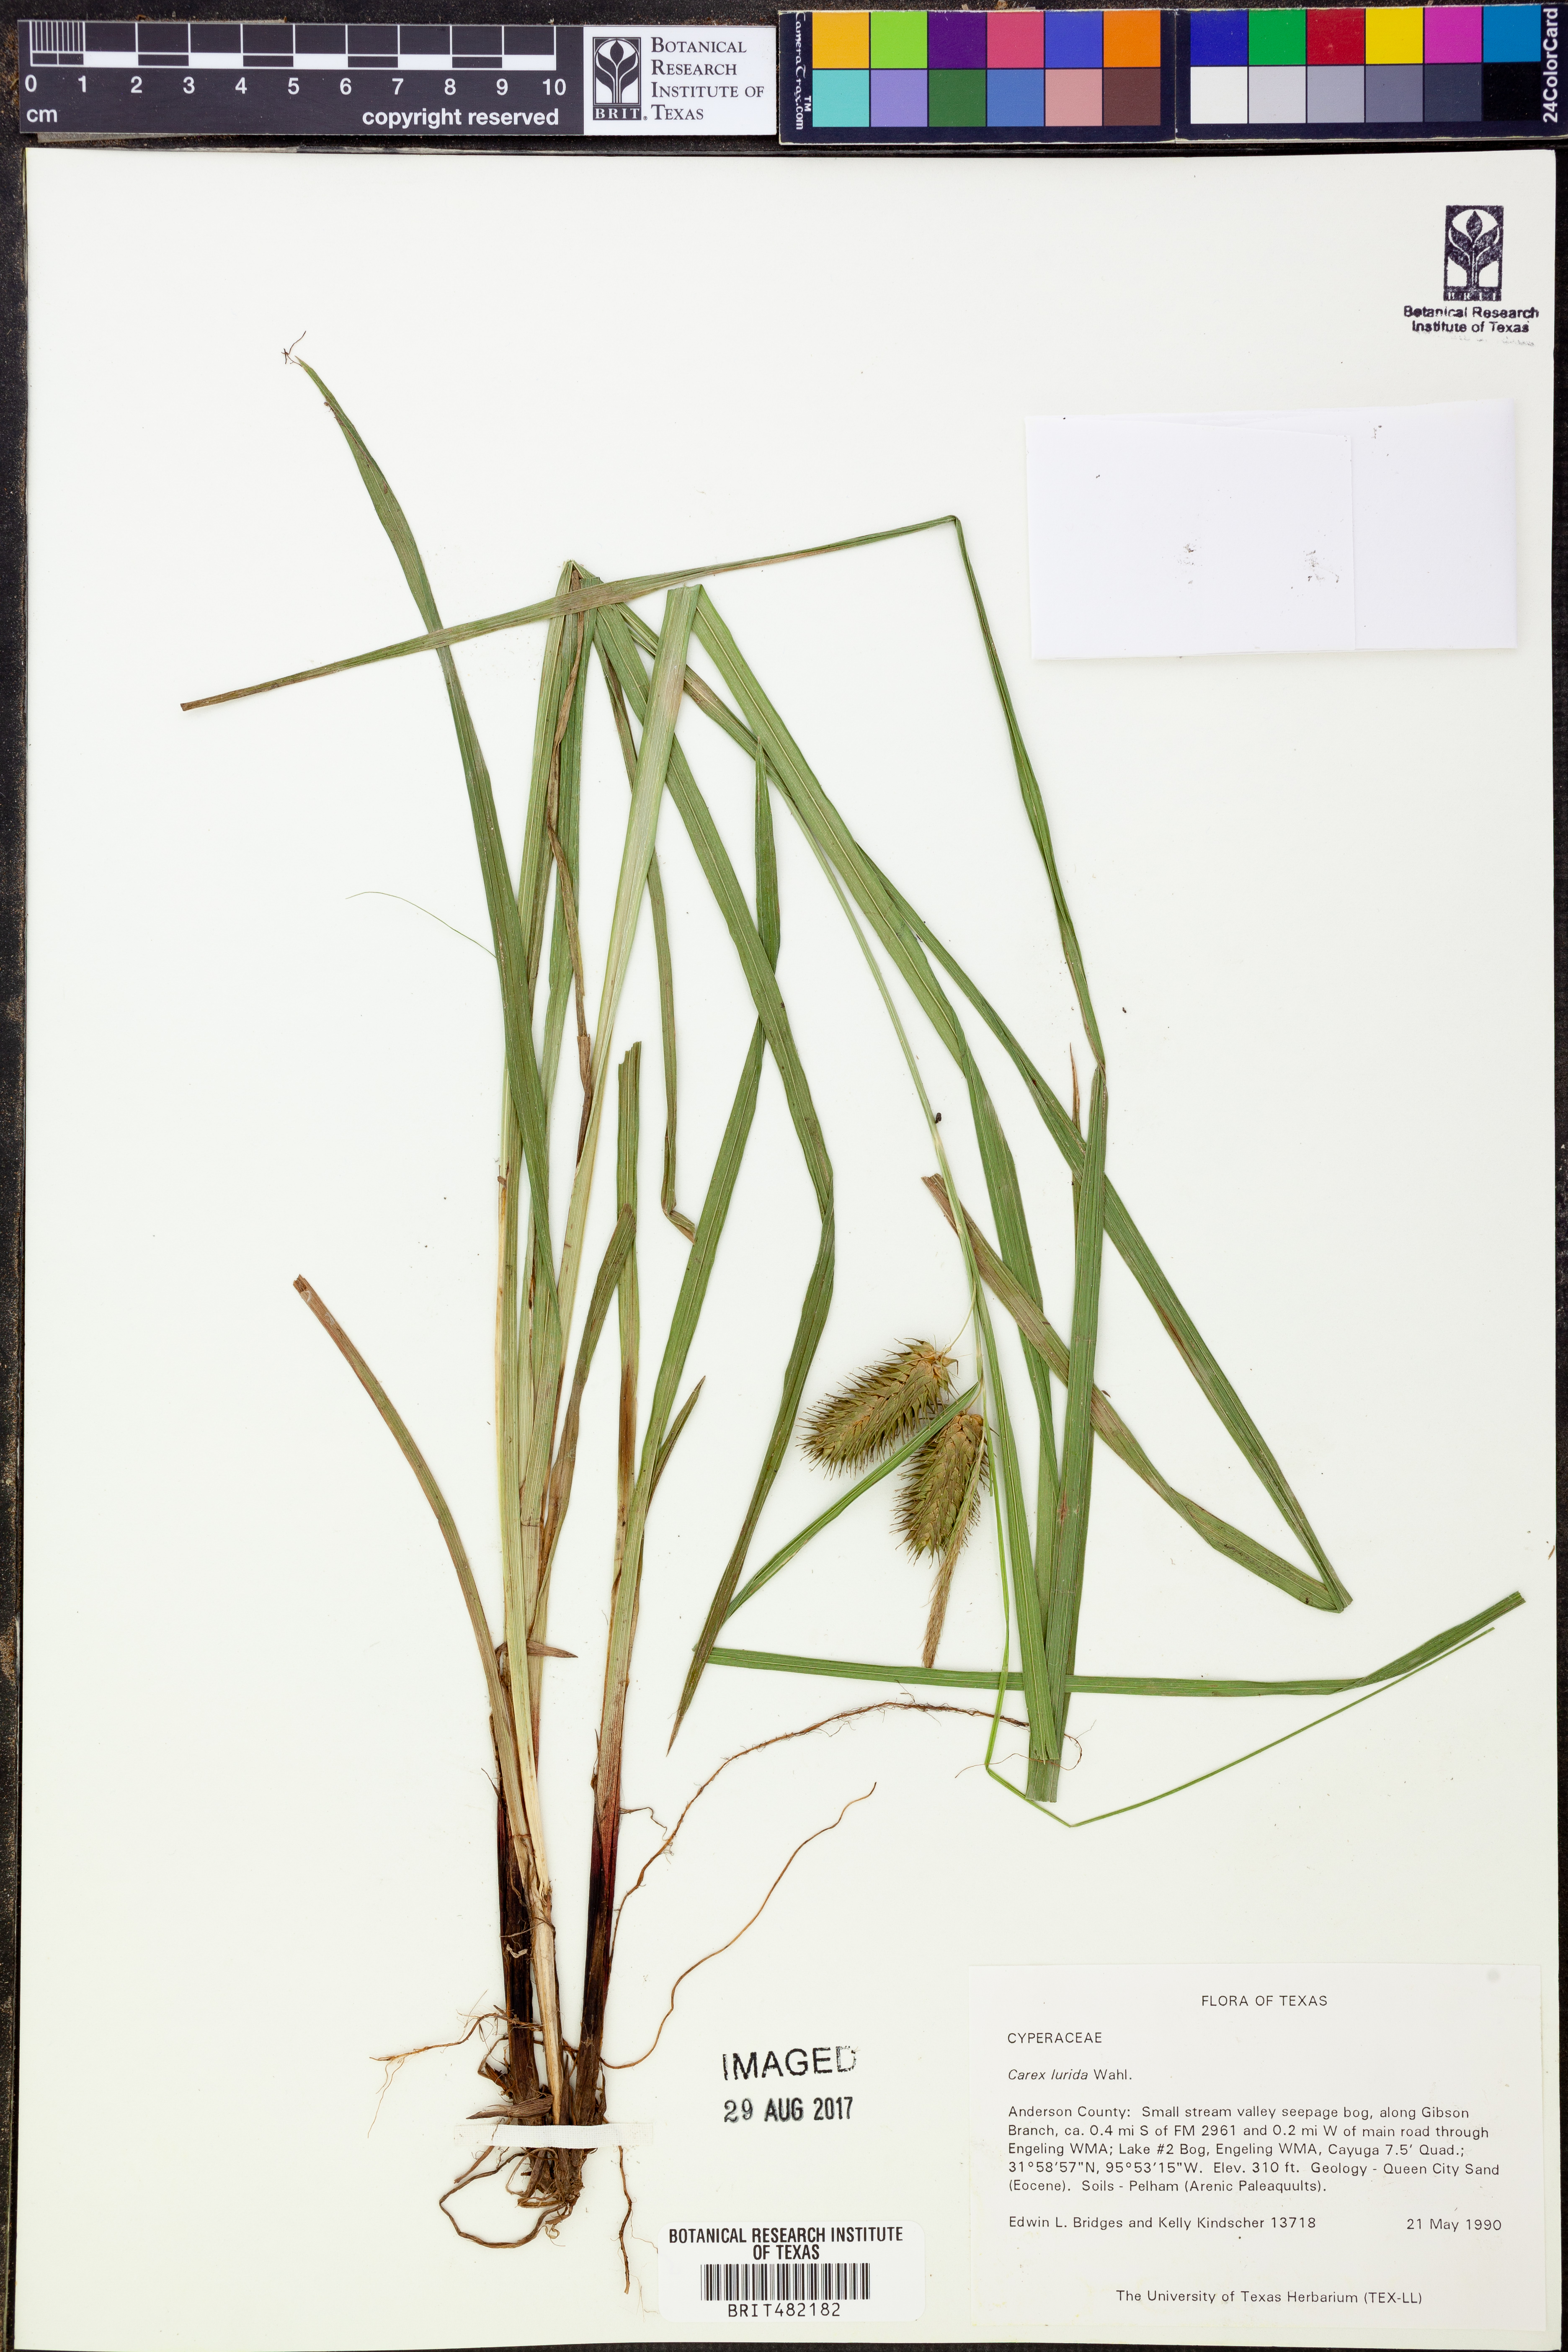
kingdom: Plantae
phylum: Tracheophyta
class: Liliopsida
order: Poales
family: Cyperaceae
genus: Carex
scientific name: Carex lurida
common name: Sallow sedge
